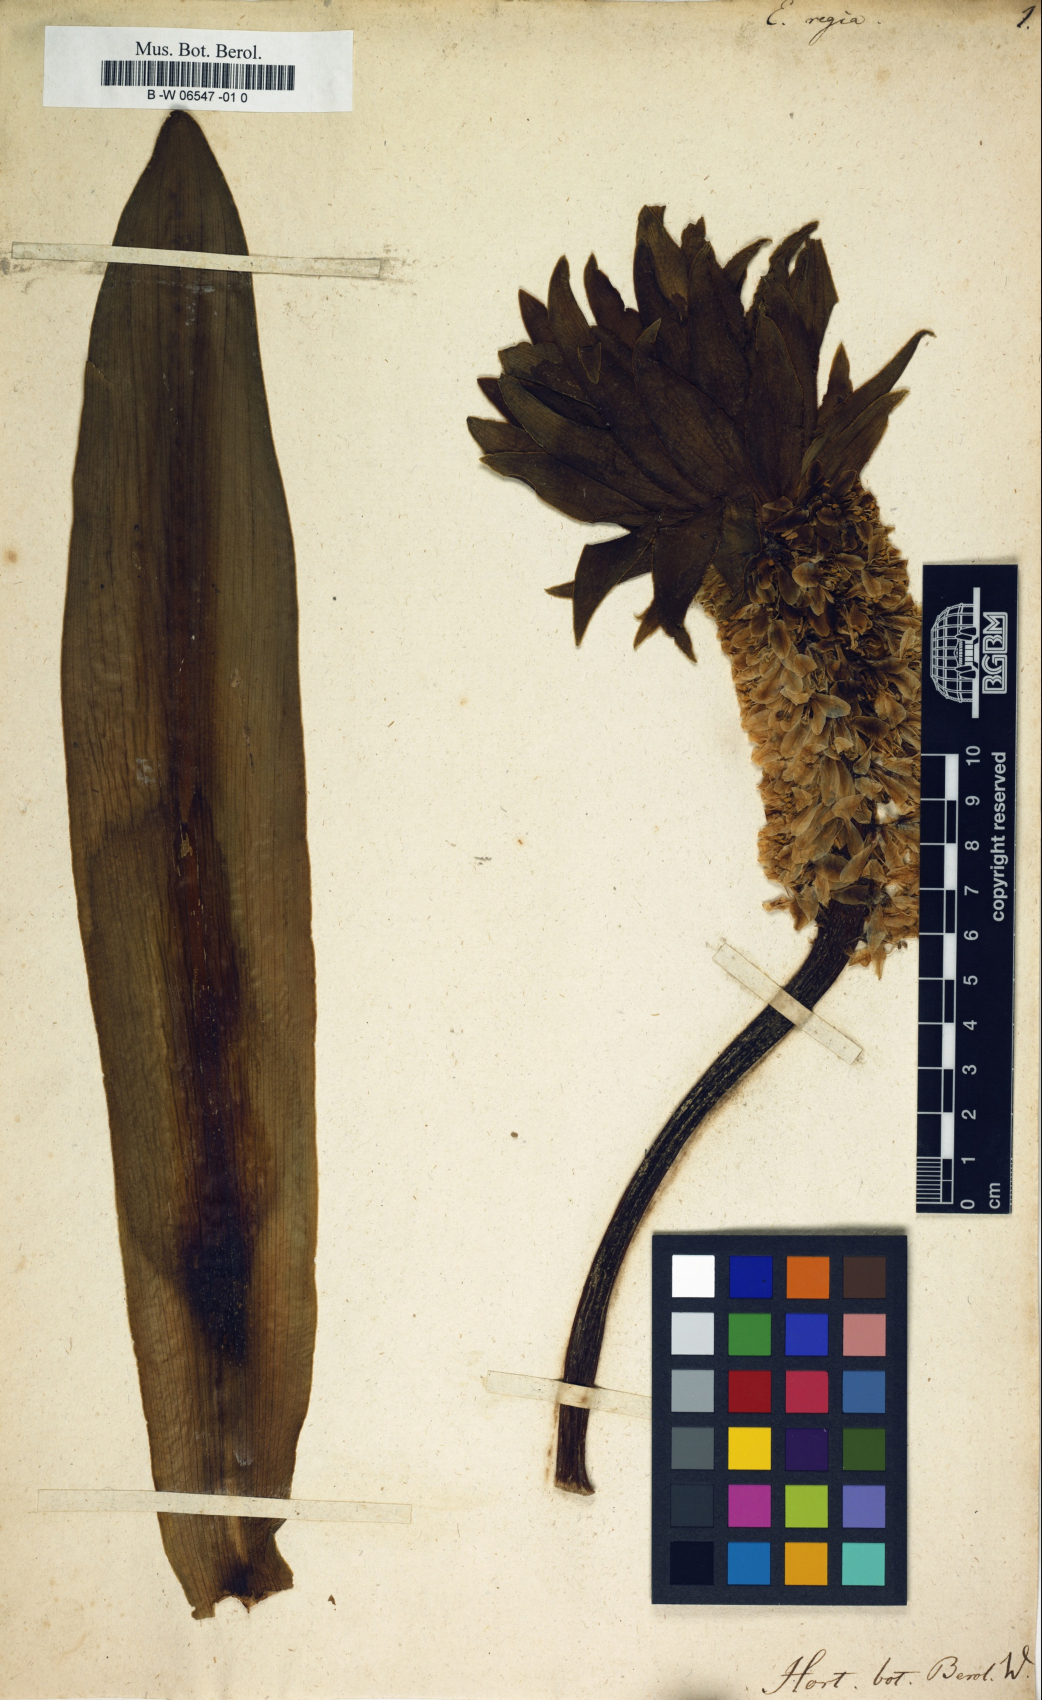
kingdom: Plantae
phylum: Tracheophyta
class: Liliopsida
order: Asparagales
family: Asparagaceae
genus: Eucomis
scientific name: Eucomis regia
